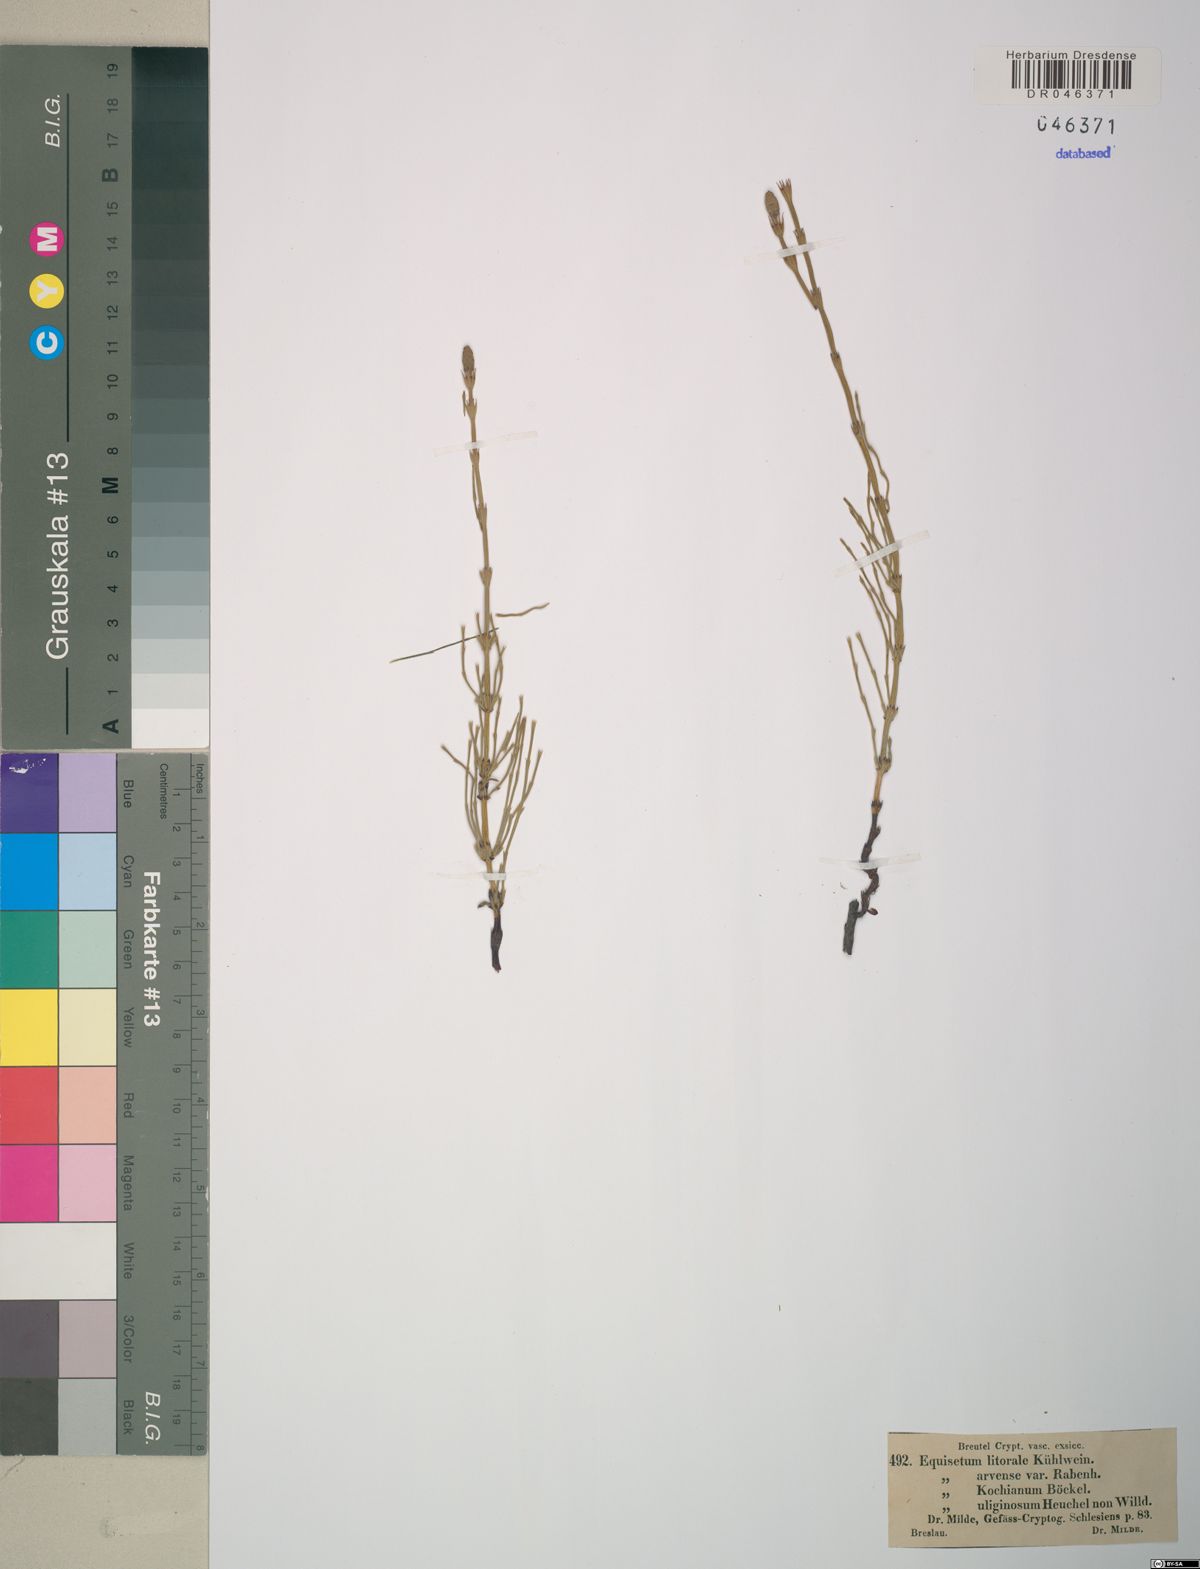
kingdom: Plantae
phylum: Tracheophyta
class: Polypodiopsida
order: Equisetales
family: Equisetaceae
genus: Equisetum
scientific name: Equisetum litorale
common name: Littoral horsetail
